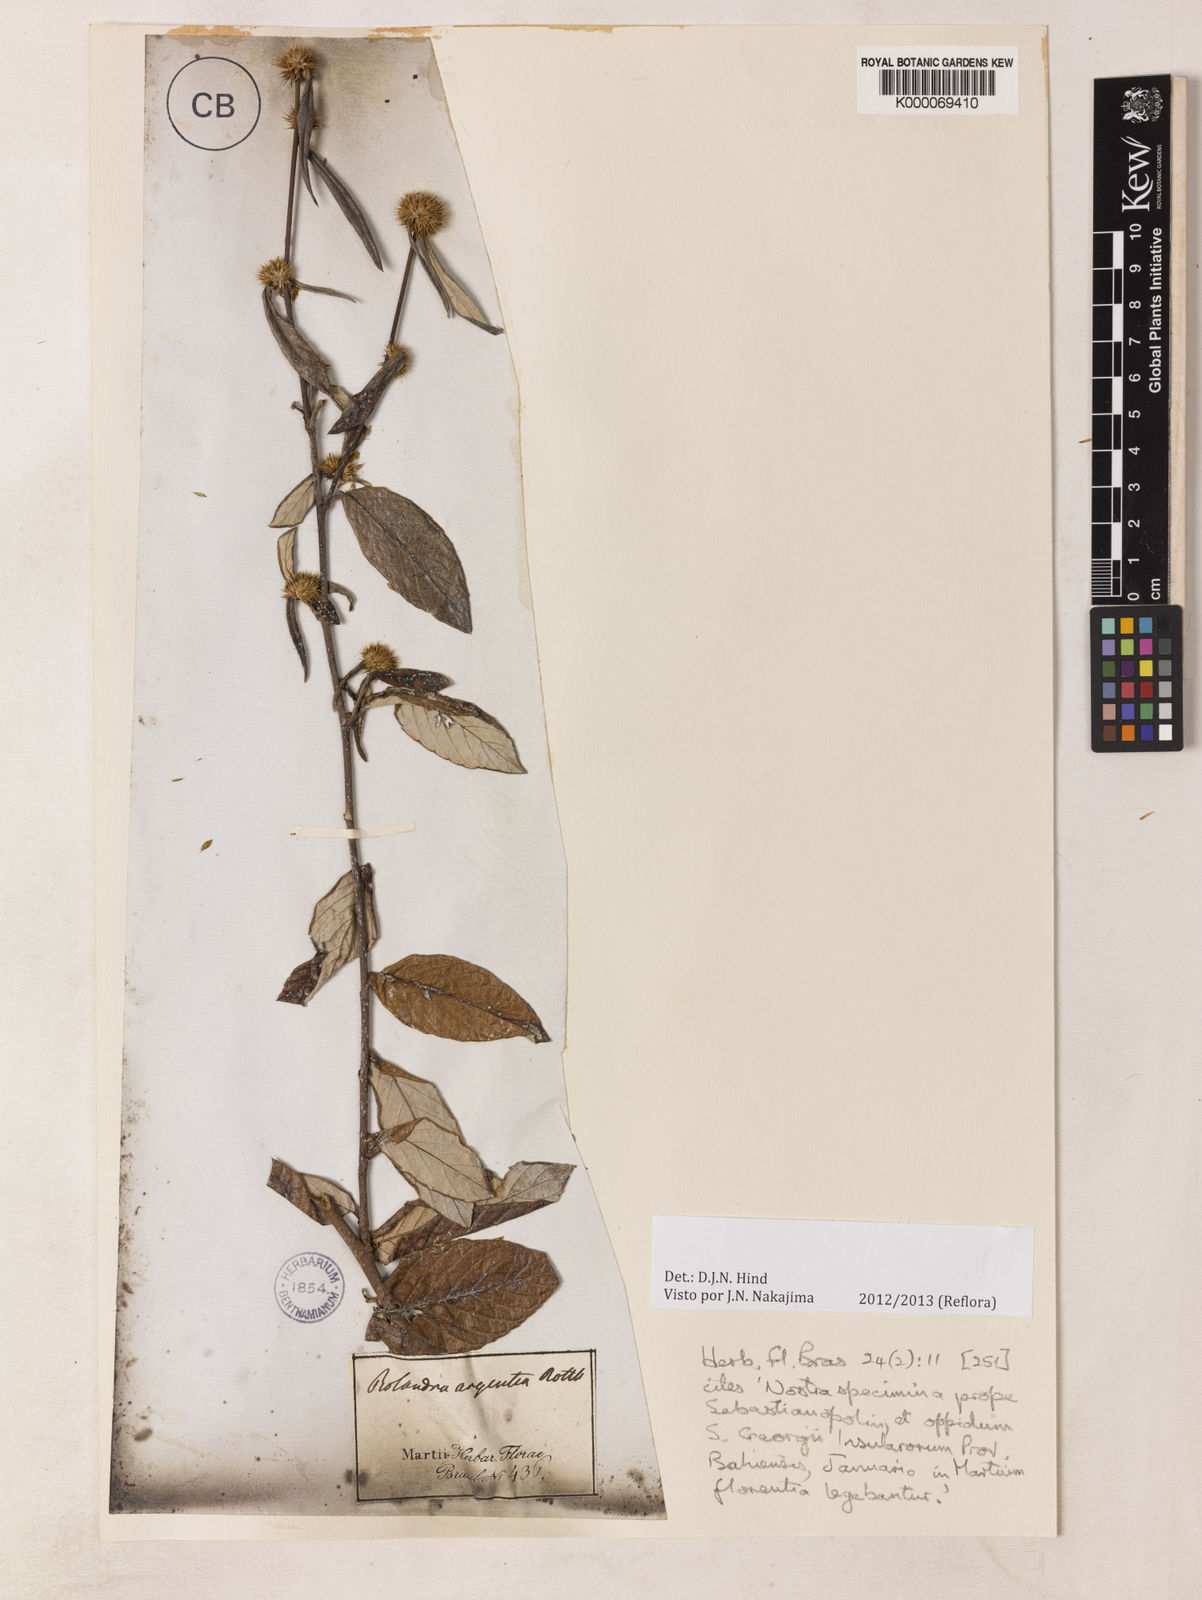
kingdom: Plantae
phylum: Tracheophyta
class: Magnoliopsida
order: Asterales
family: Asteraceae
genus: Rolandra
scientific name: Rolandra fruticosa
